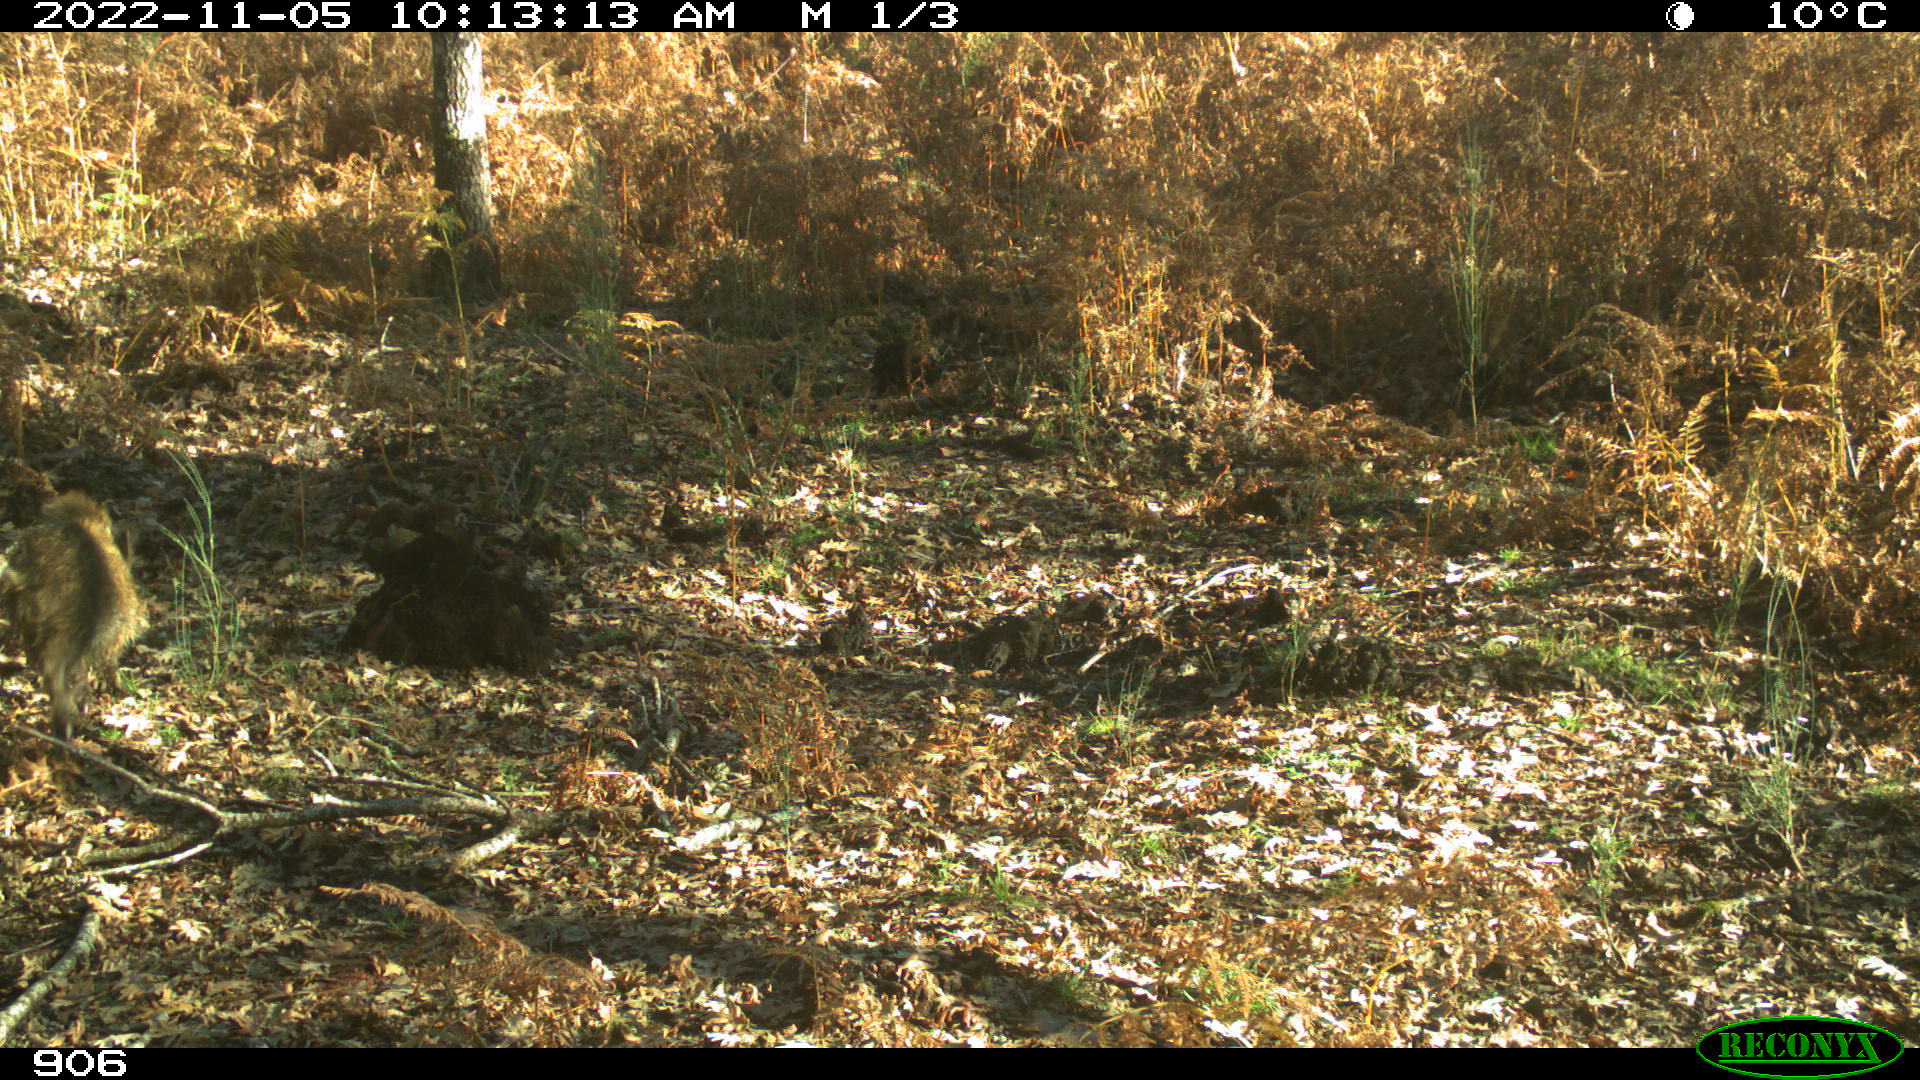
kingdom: Animalia
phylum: Chordata
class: Mammalia
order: Artiodactyla
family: Suidae
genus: Sus
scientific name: Sus scrofa
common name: Wild boar
